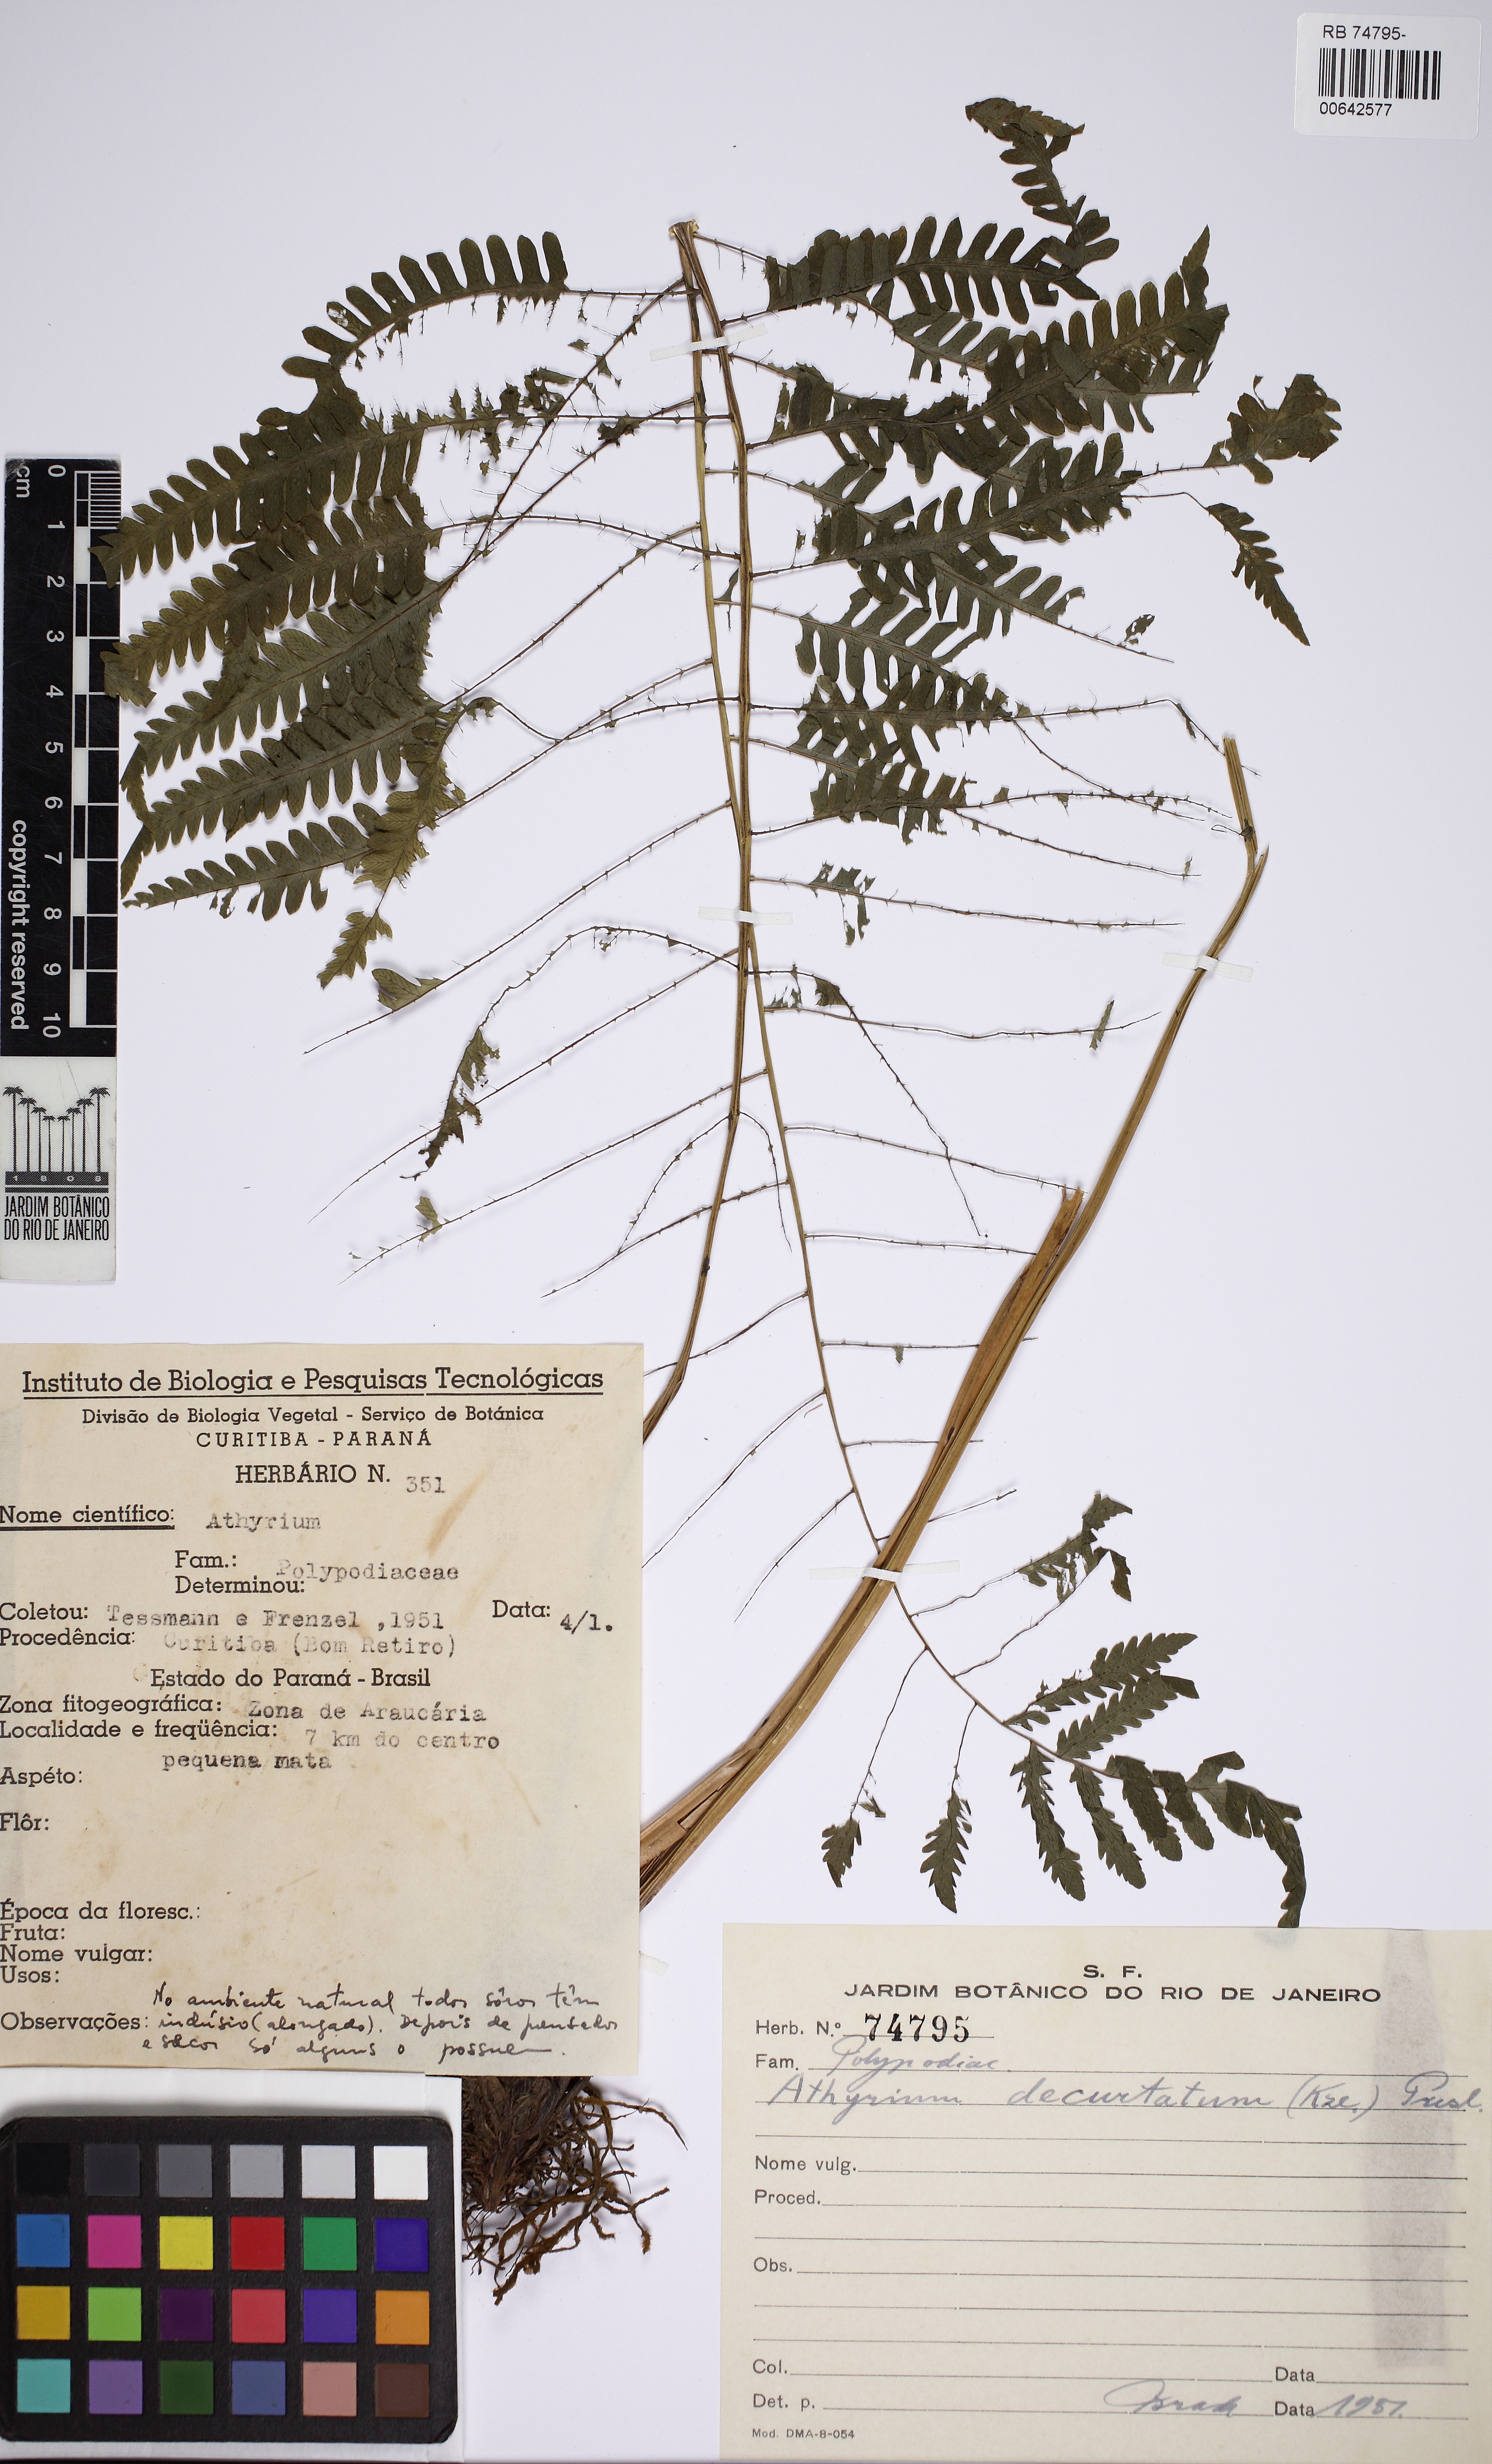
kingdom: Plantae
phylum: Tracheophyta
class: Polypodiopsida
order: Polypodiales
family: Thelypteridaceae
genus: Amauropelta
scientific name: Amauropelta decurtata
